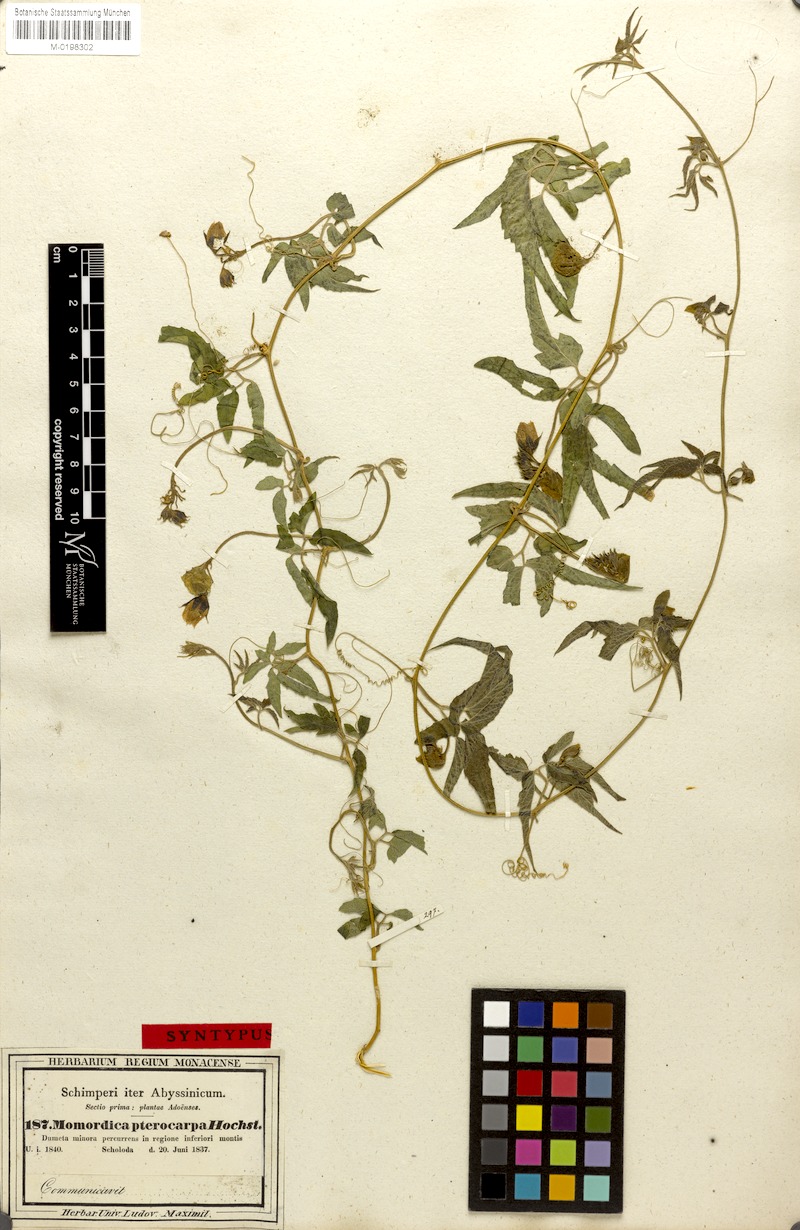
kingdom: Plantae
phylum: Tracheophyta
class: Magnoliopsida
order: Cucurbitales
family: Cucurbitaceae
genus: Momordica
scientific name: Momordica pterocarpa
